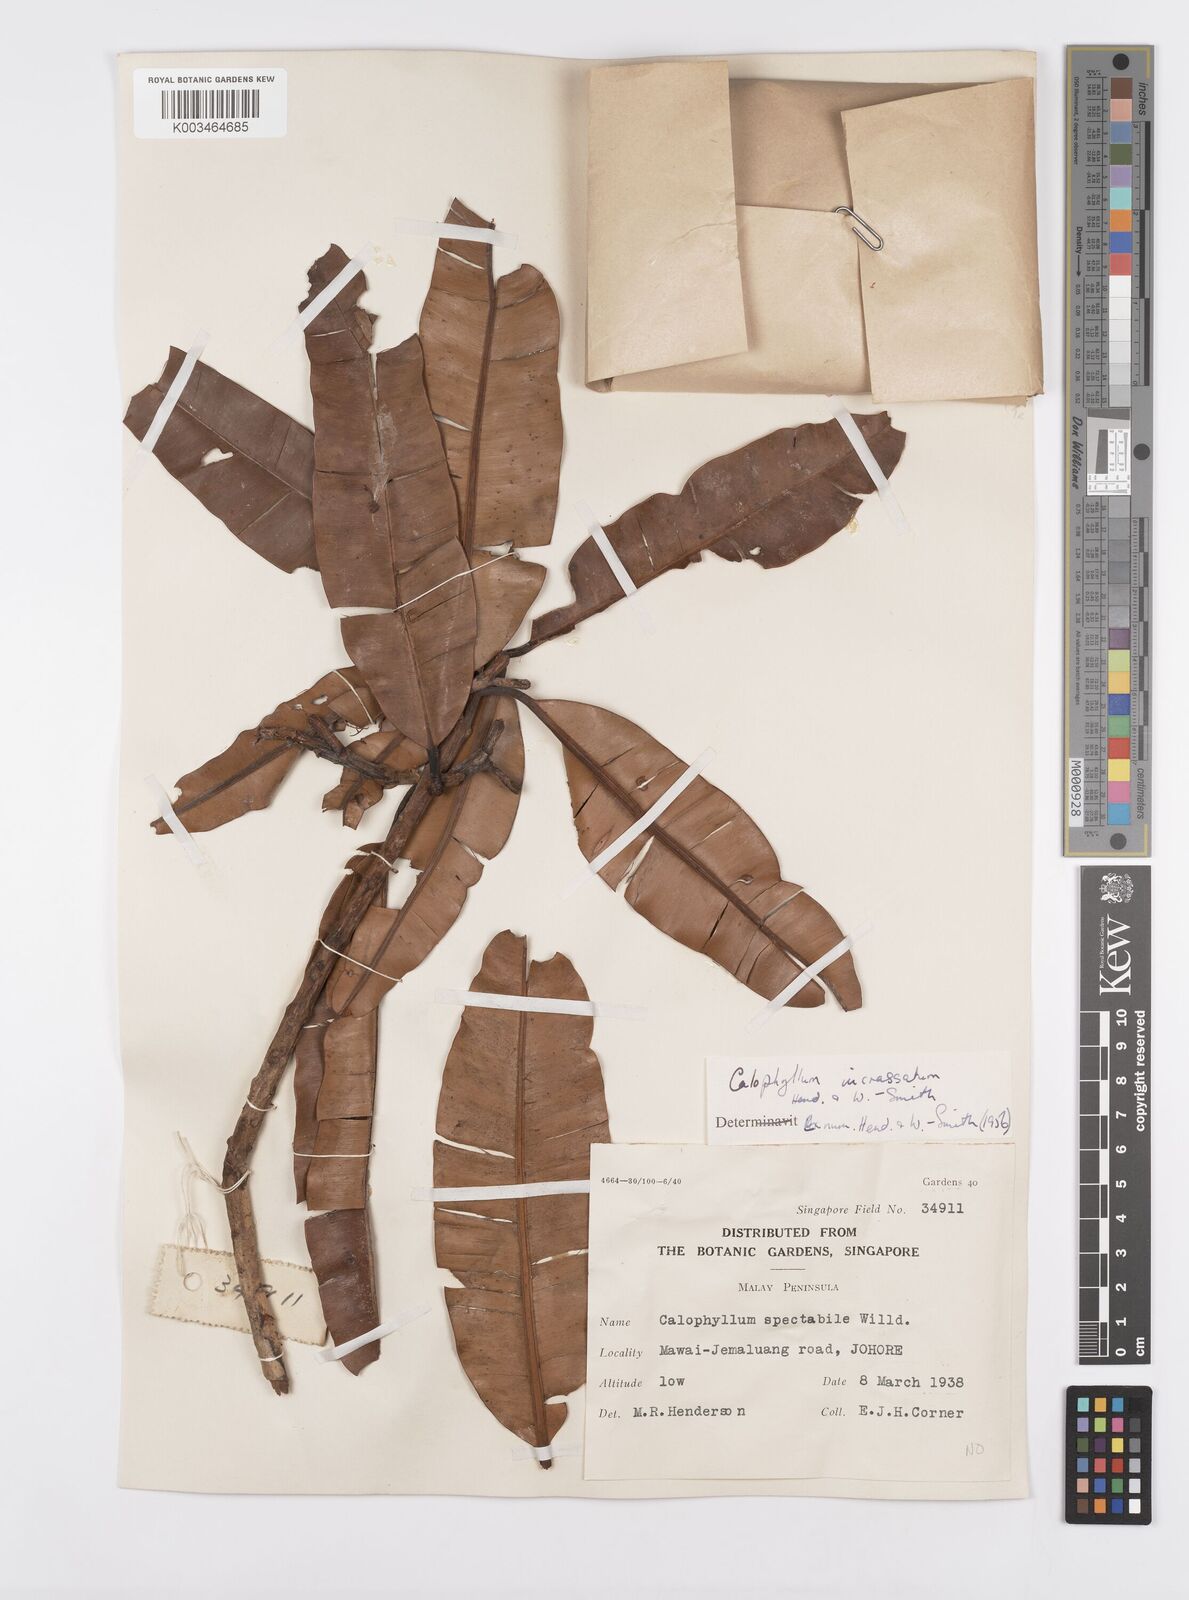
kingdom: Plantae
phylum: Tracheophyta
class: Magnoliopsida
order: Malpighiales
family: Calophyllaceae
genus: Calophyllum
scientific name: Calophyllum wallichiana
